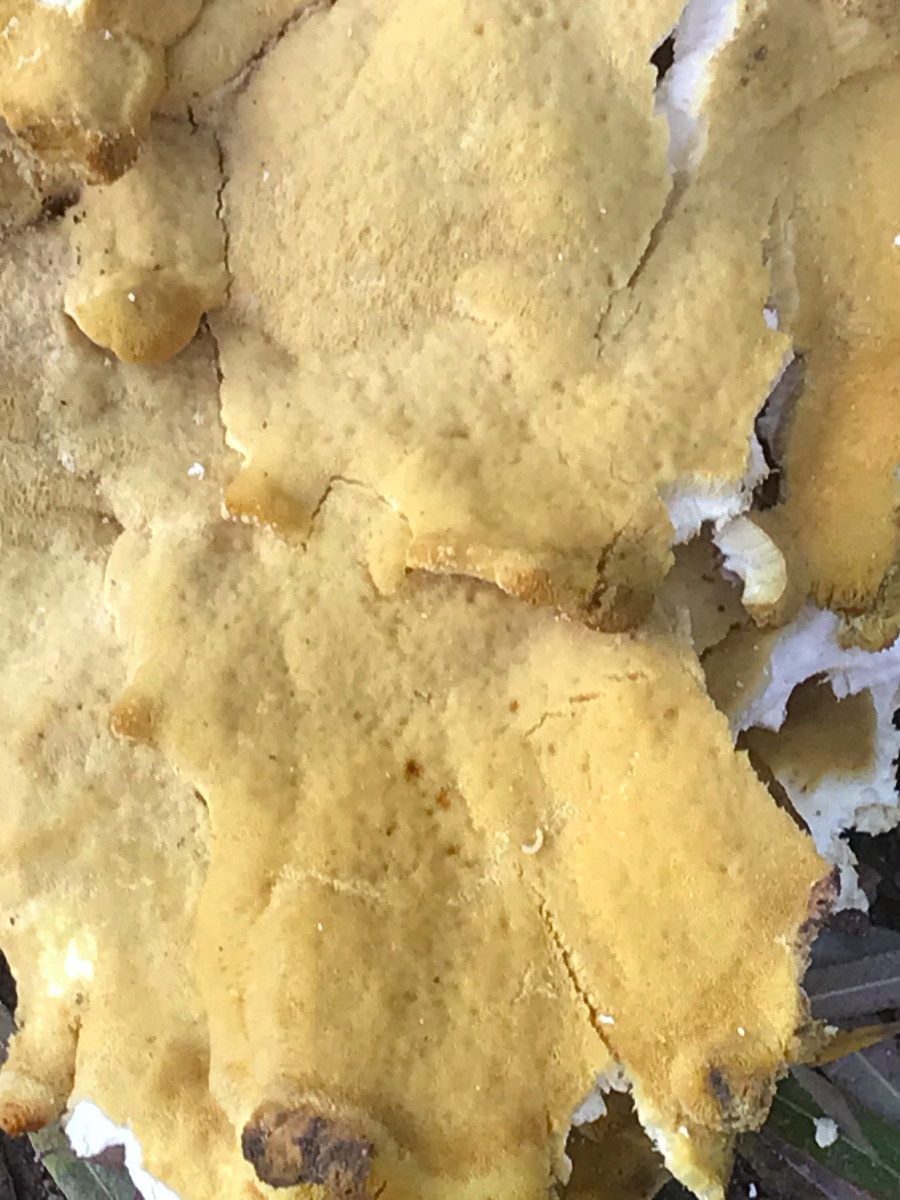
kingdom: Fungi
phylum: Basidiomycota
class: Agaricomycetes
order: Polyporales
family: Laetiporaceae
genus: Laetiporus
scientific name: Laetiporus sulphureus
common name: svovlporesvamp
